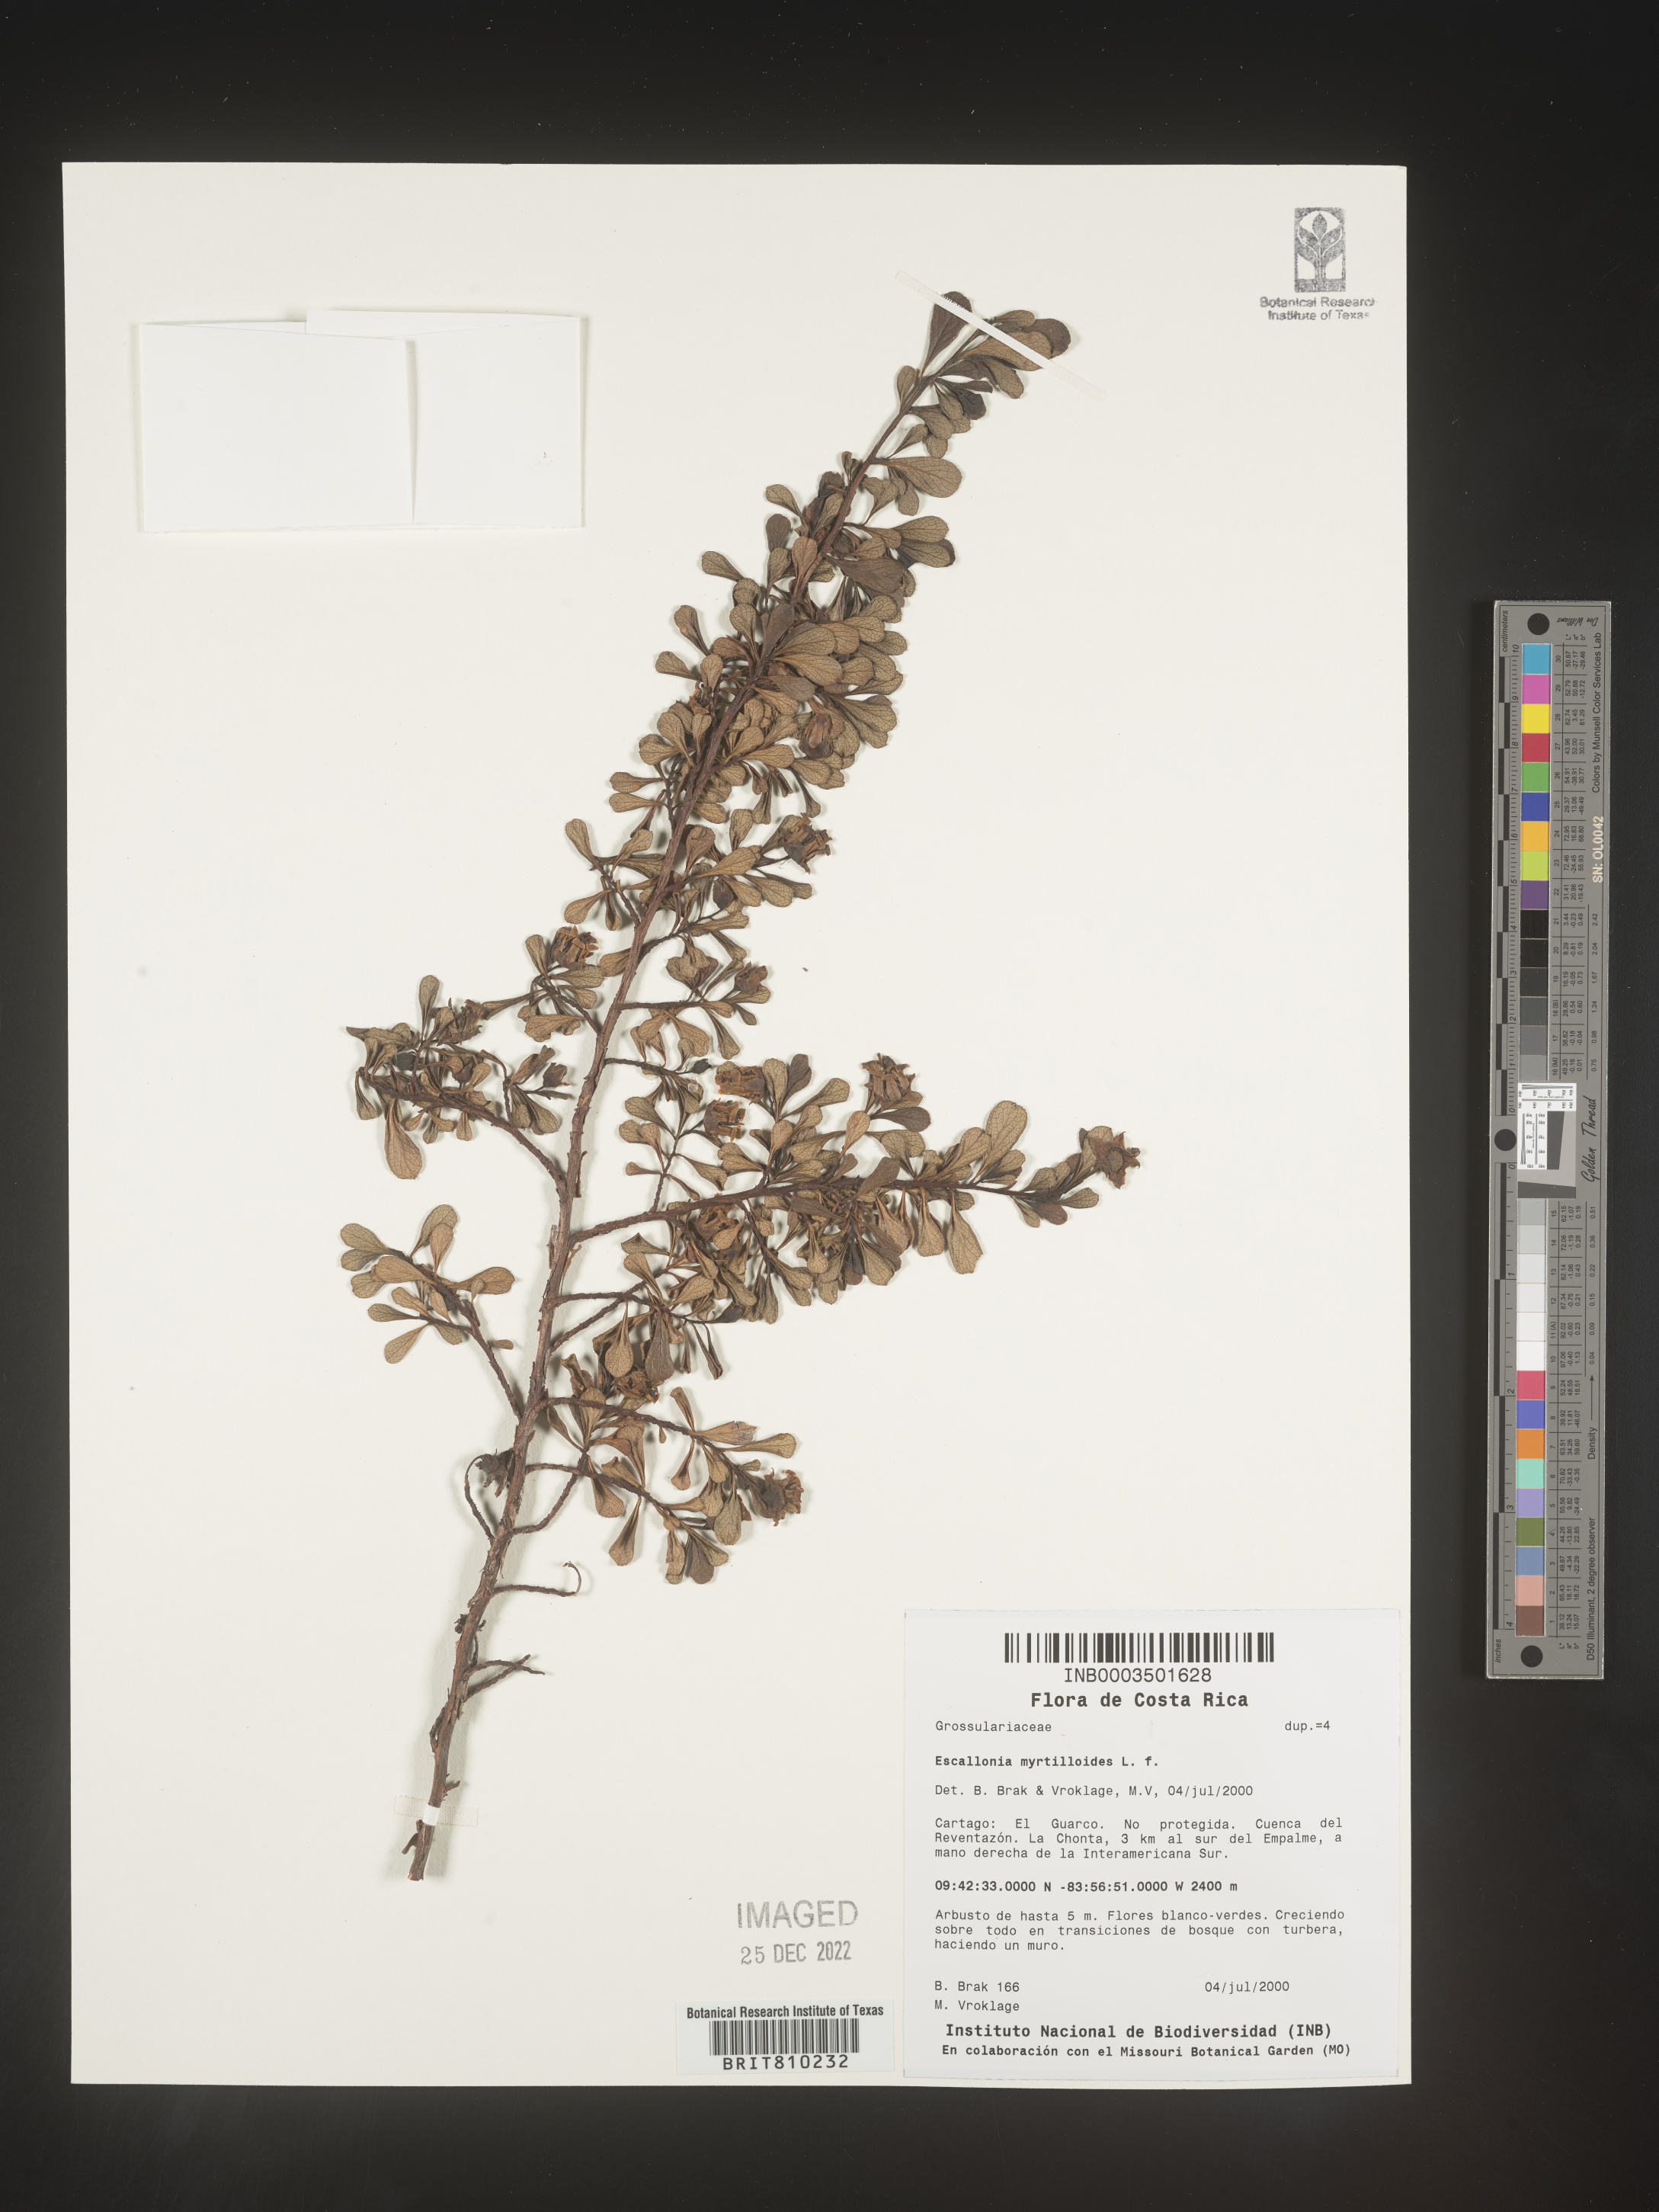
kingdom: Plantae
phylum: Tracheophyta
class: Magnoliopsida
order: Escalloniales
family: Escalloniaceae
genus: Escallonia
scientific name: Escallonia myrtilloides
